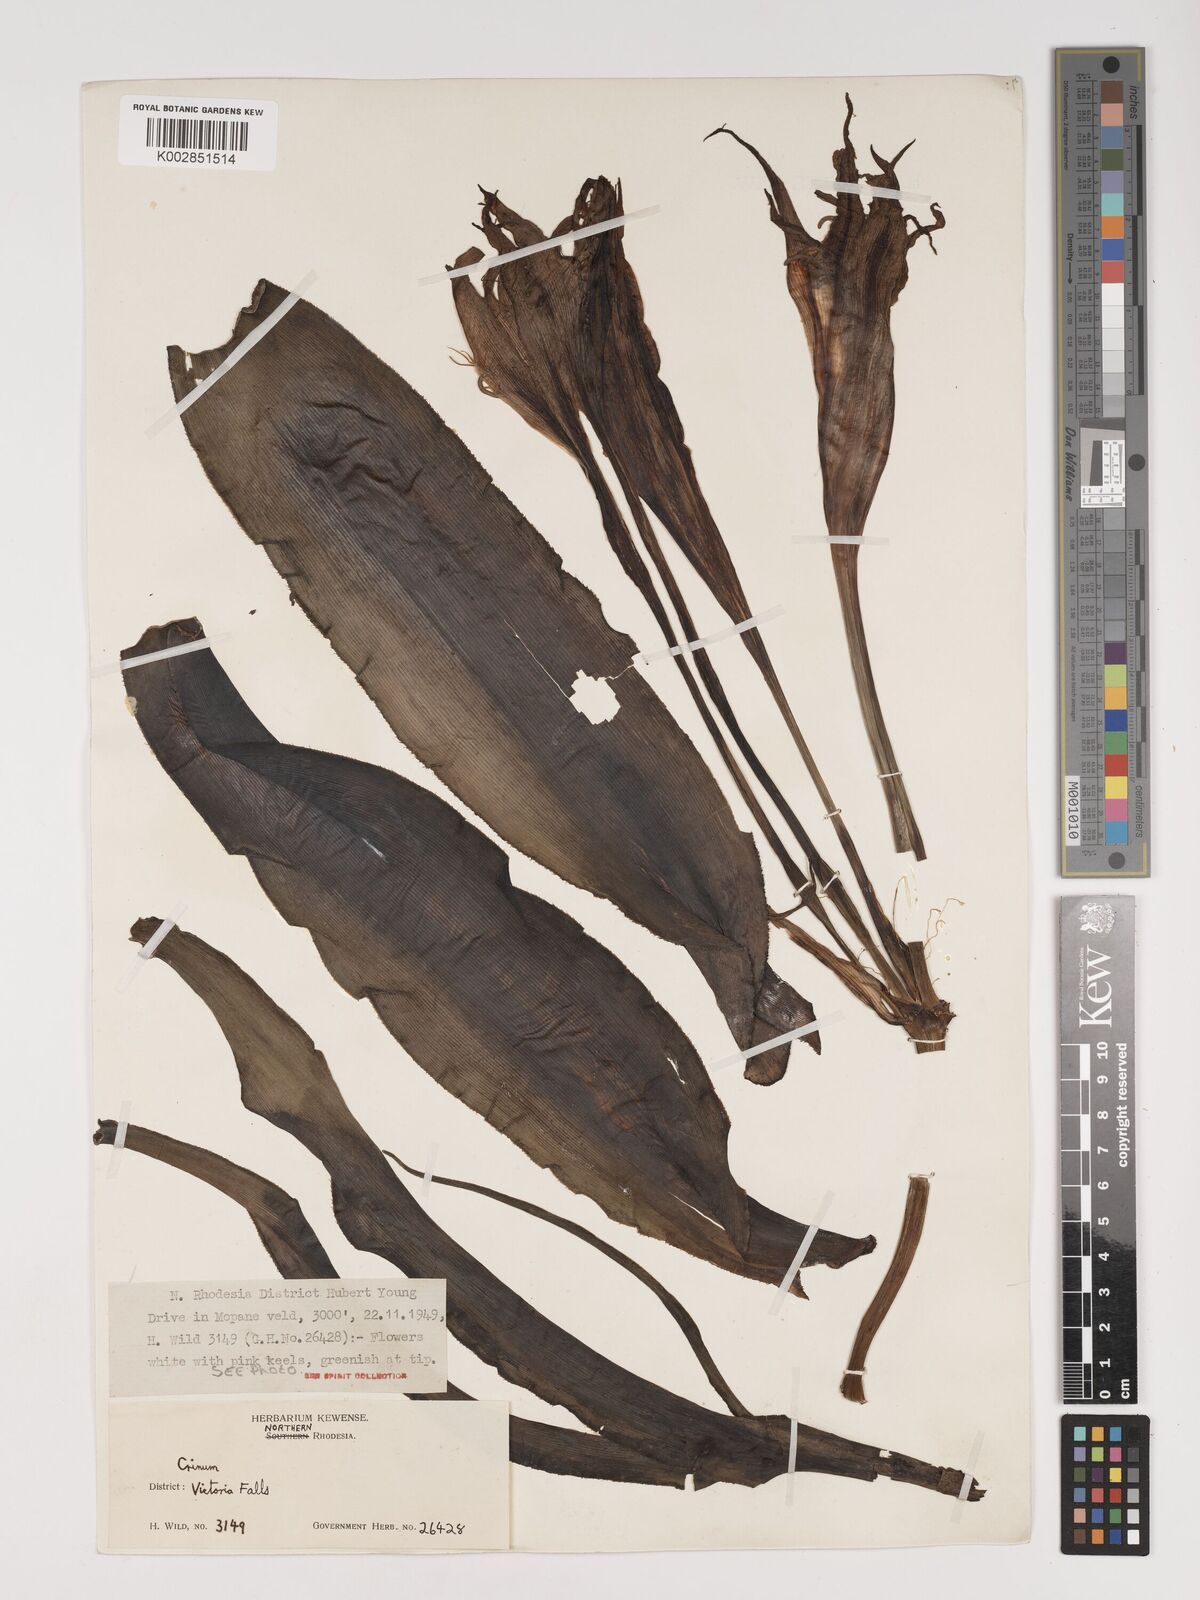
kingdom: Plantae
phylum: Tracheophyta
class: Liliopsida
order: Asparagales
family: Amaryllidaceae
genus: Crinum
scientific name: Crinum crassicaule
